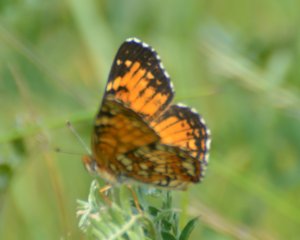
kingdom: Animalia
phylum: Arthropoda
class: Insecta
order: Lepidoptera
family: Nymphalidae
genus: Chlosyne
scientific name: Chlosyne harrisii
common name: Harris's Checkerspot
